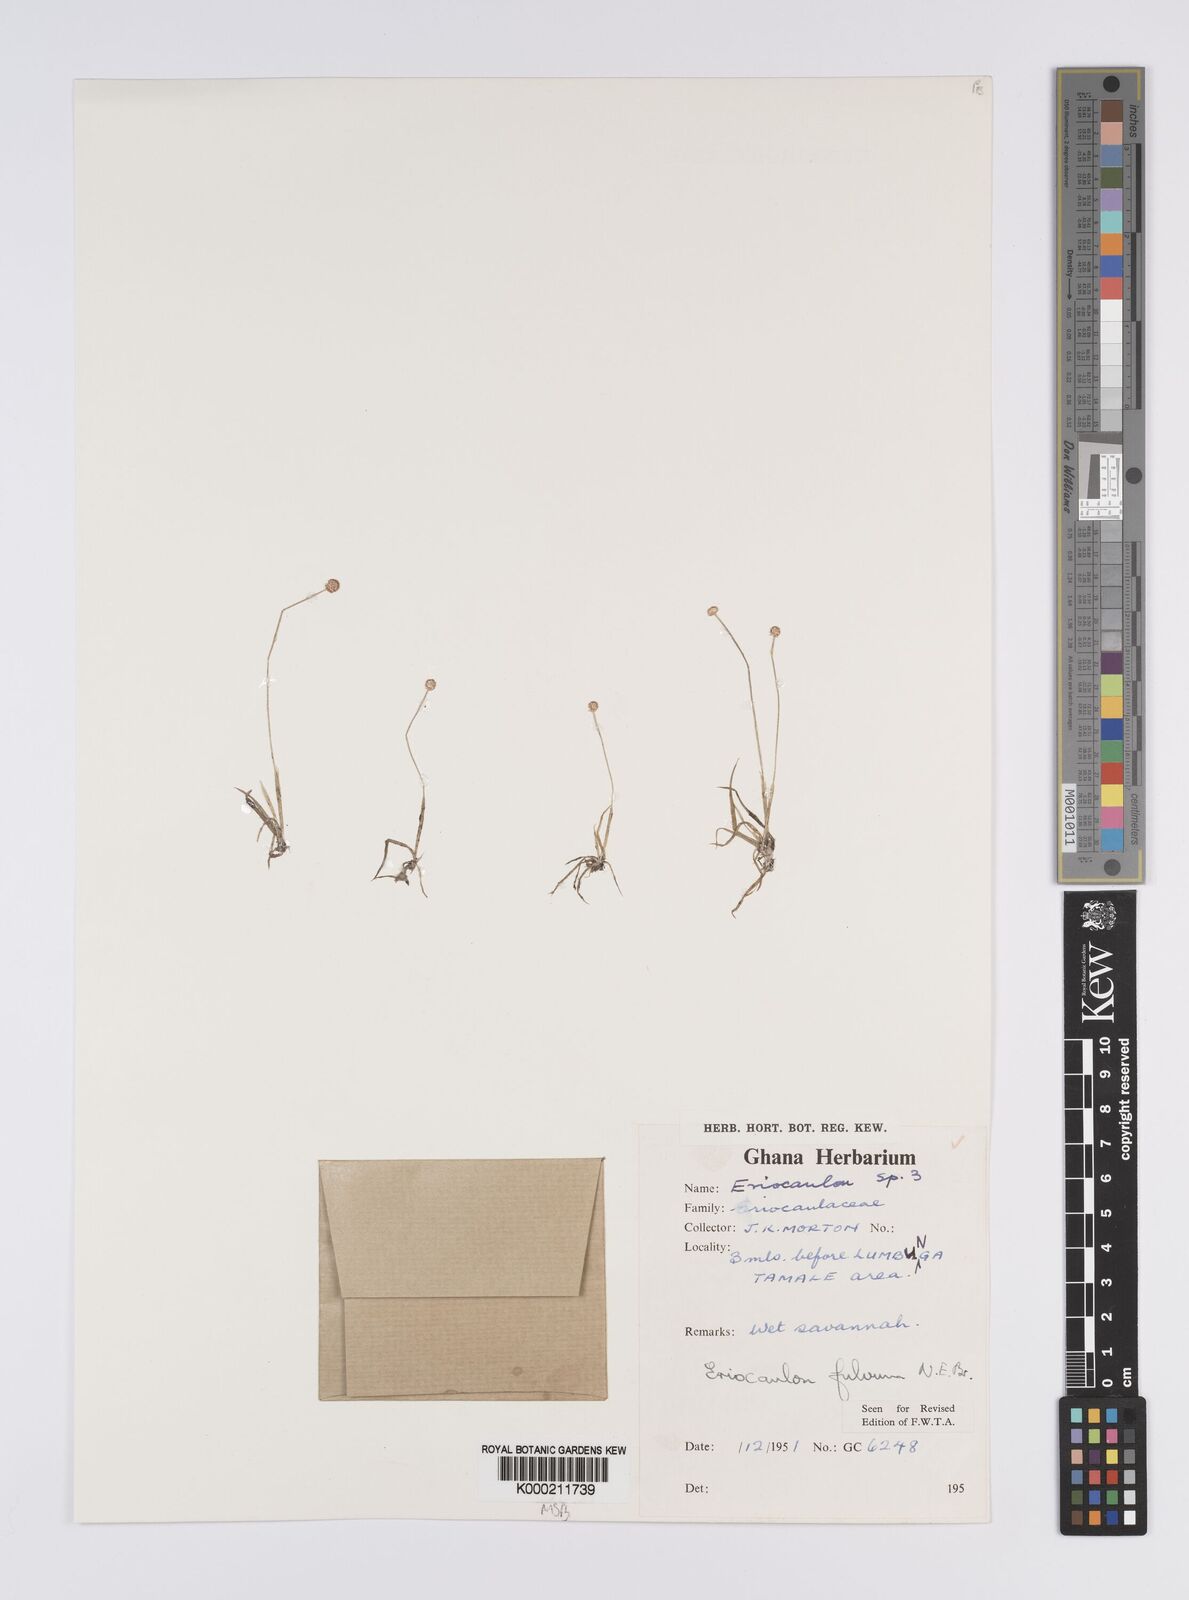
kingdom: Plantae
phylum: Tracheophyta
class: Liliopsida
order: Poales
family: Eriocaulaceae
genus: Eriocaulon
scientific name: Eriocaulon fulvum
